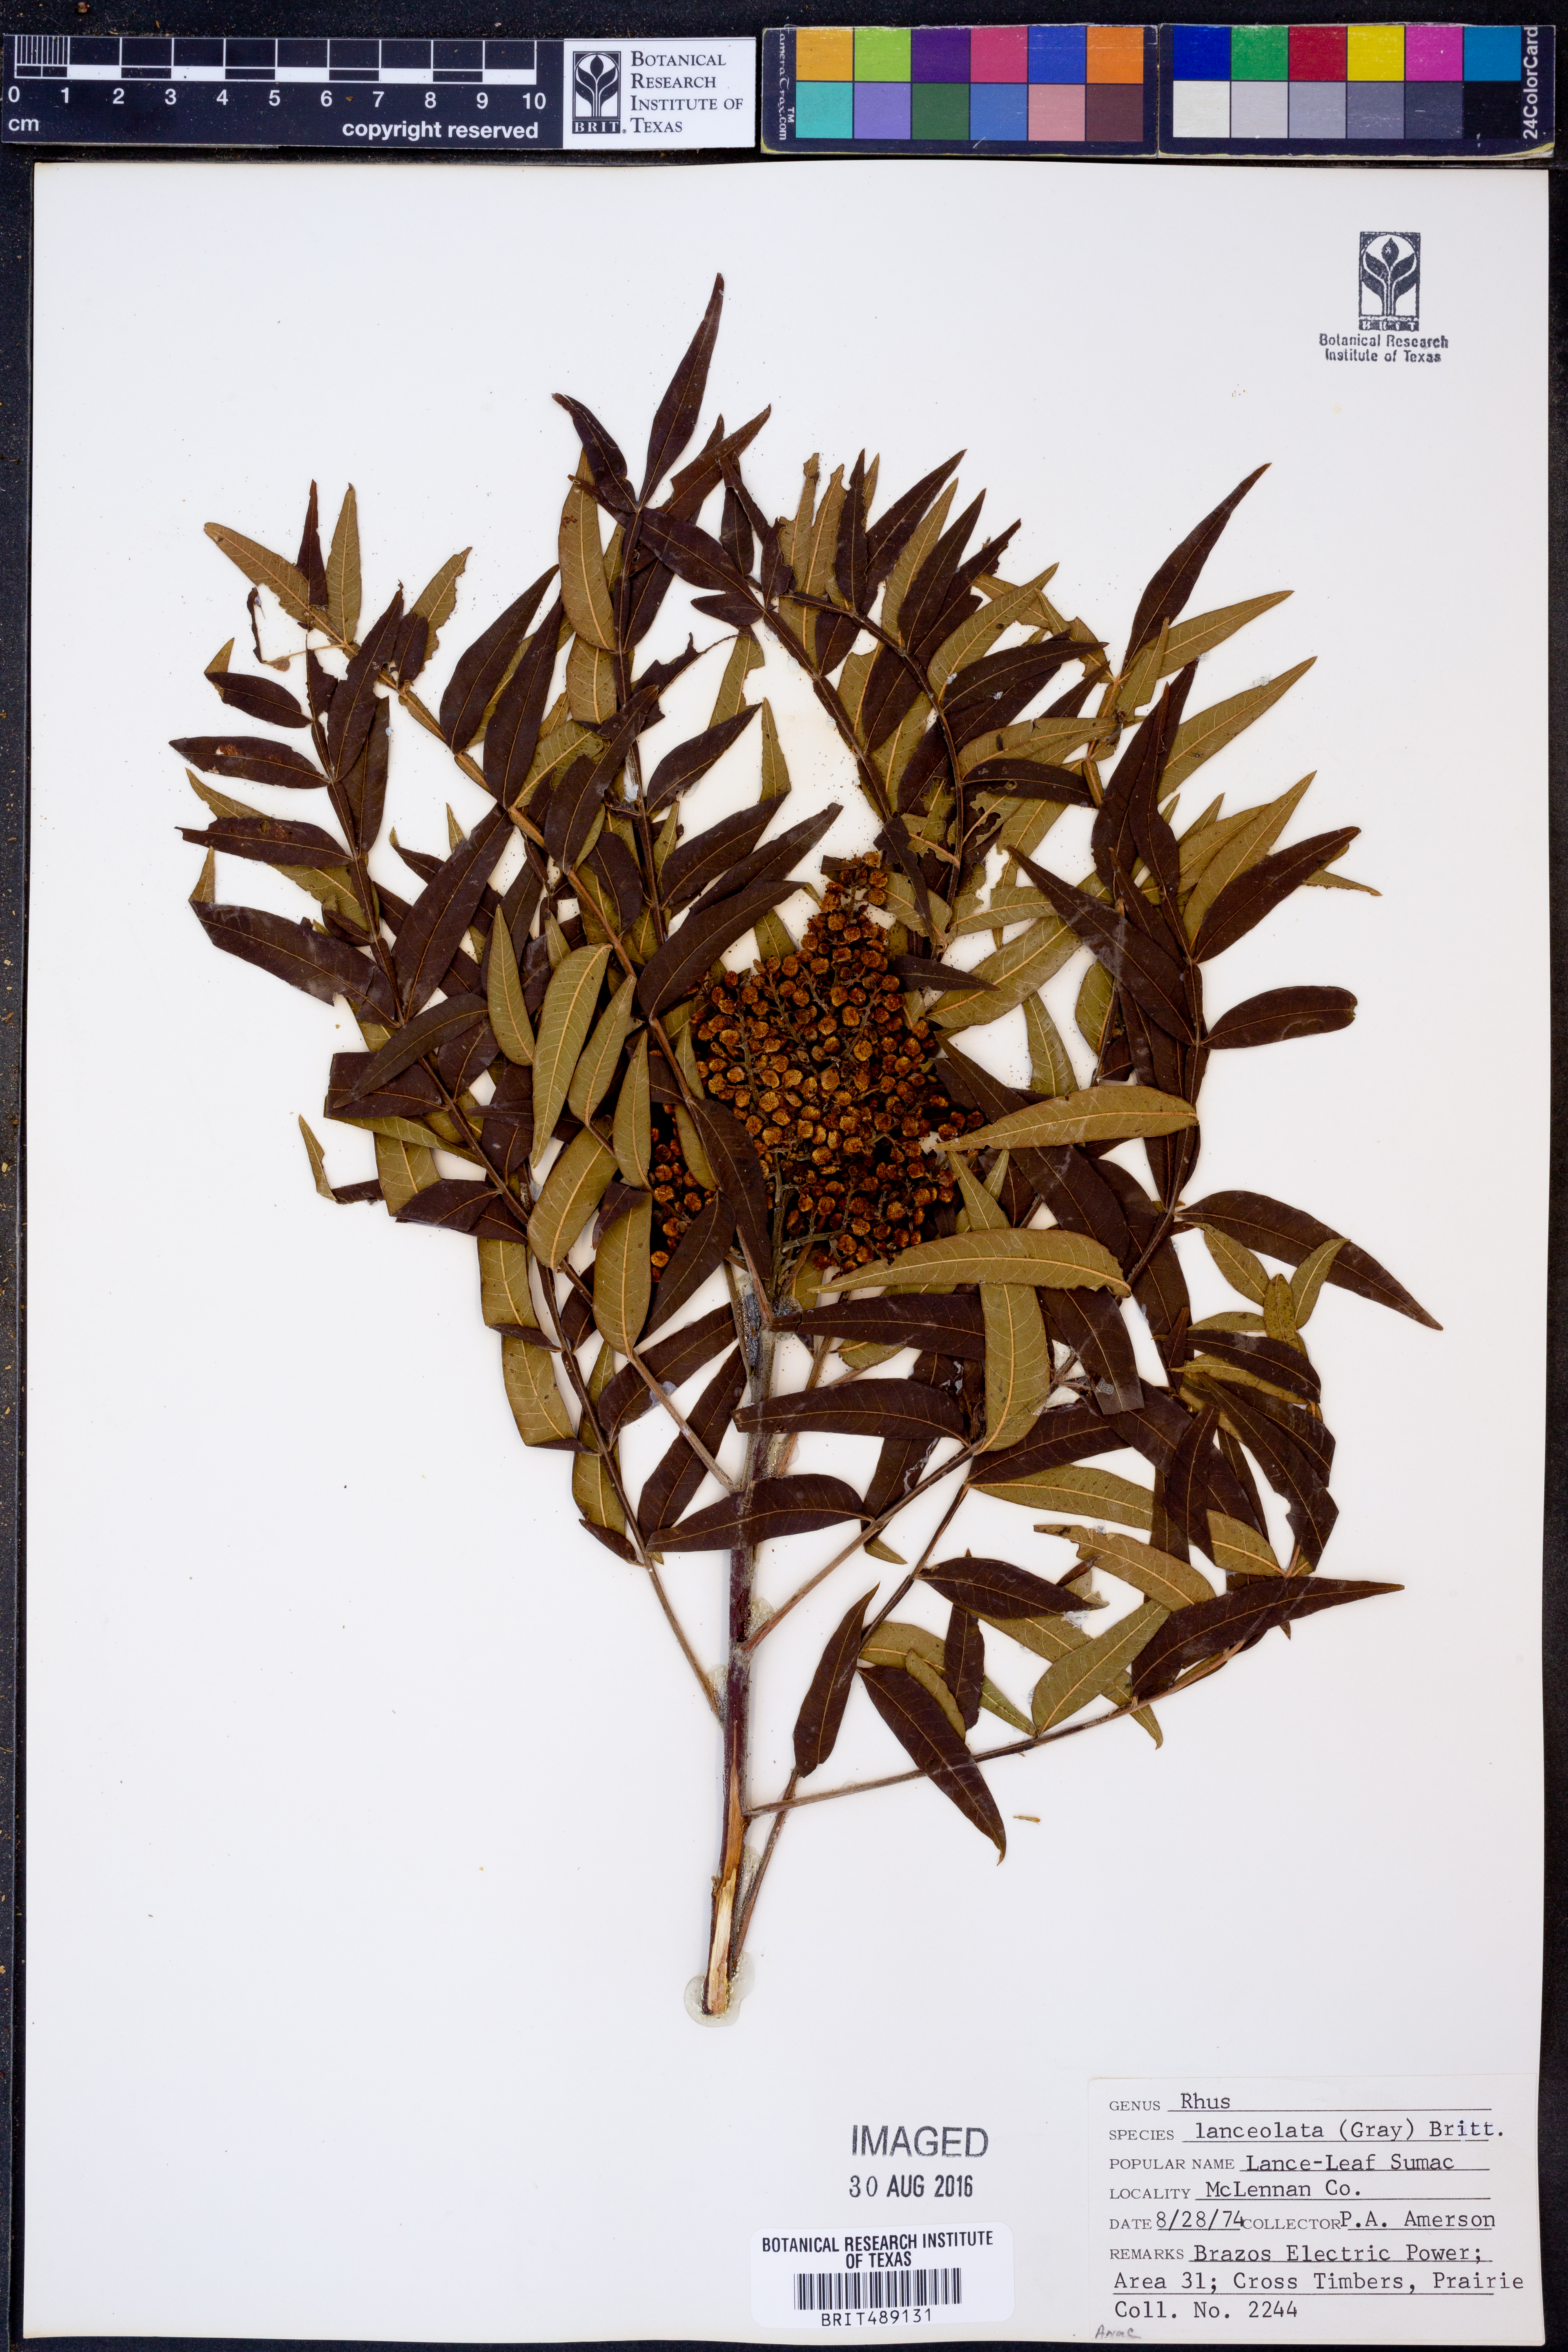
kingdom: Plantae
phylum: Tracheophyta
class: Magnoliopsida
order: Sapindales
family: Anacardiaceae
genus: Rhus
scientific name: Rhus lanceolata
